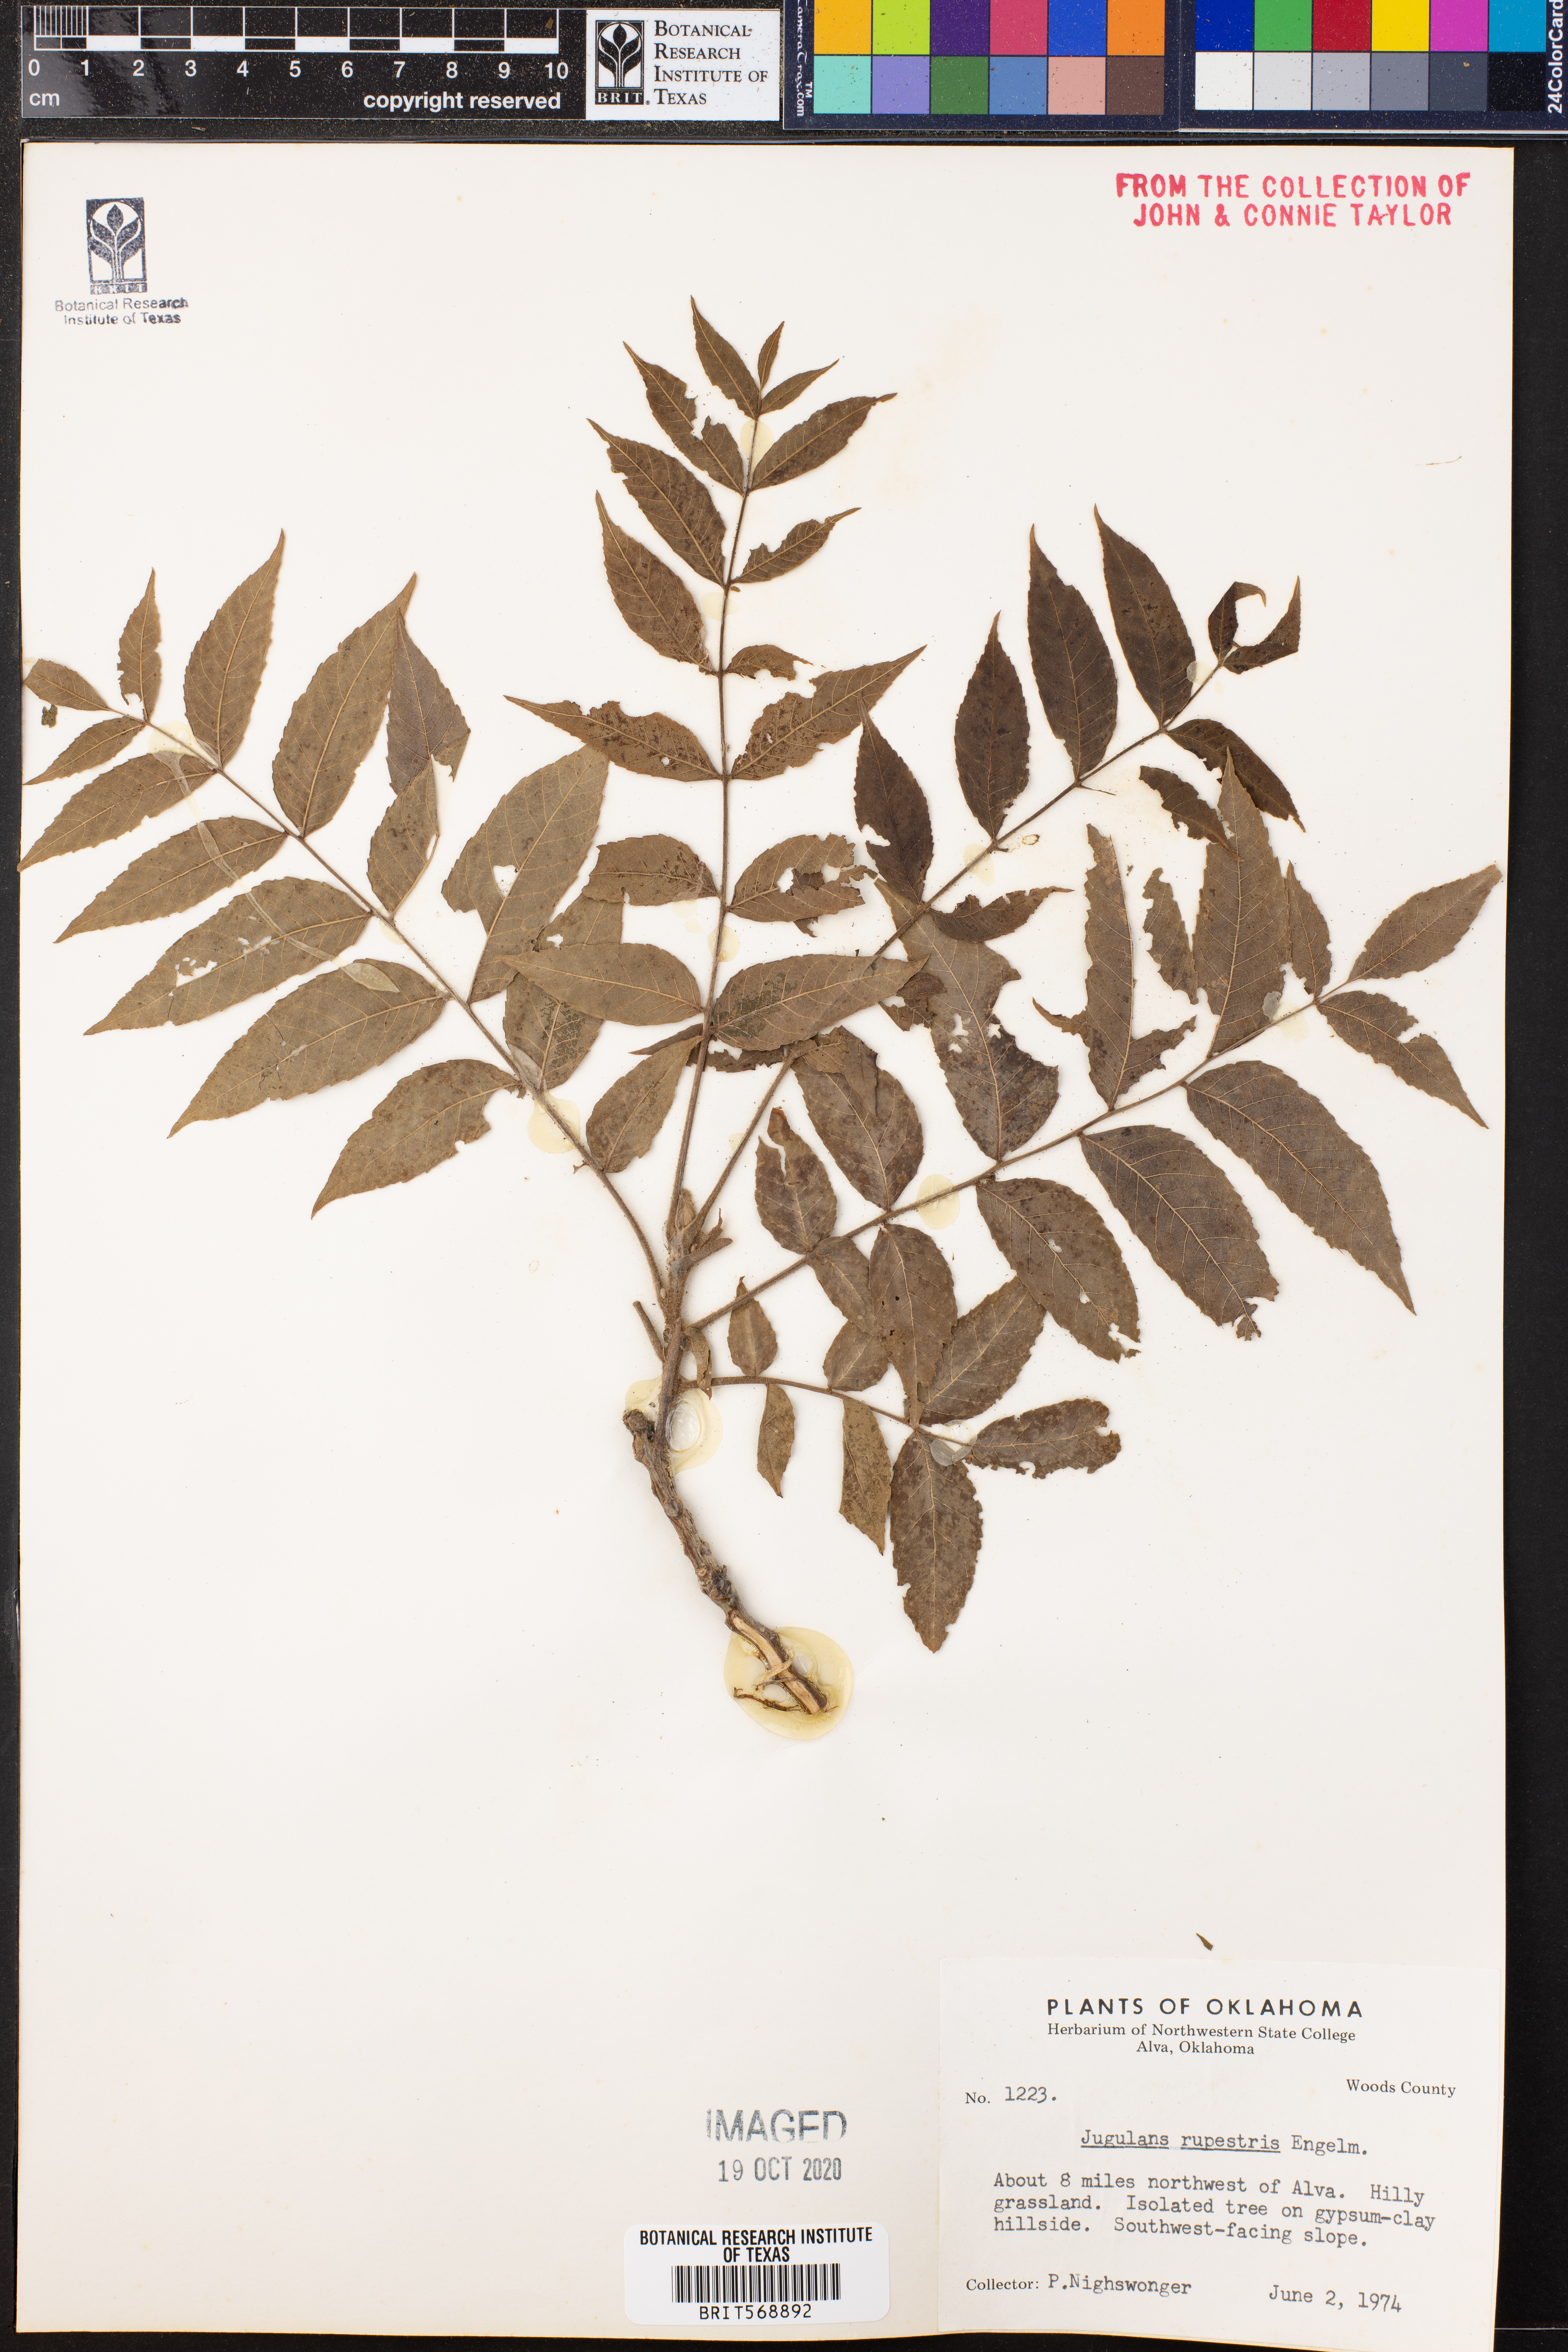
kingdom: Plantae
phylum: Tracheophyta
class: Magnoliopsida
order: Fagales
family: Juglandaceae
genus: Juglans
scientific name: Juglans microcarpa
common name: Texas walnut
